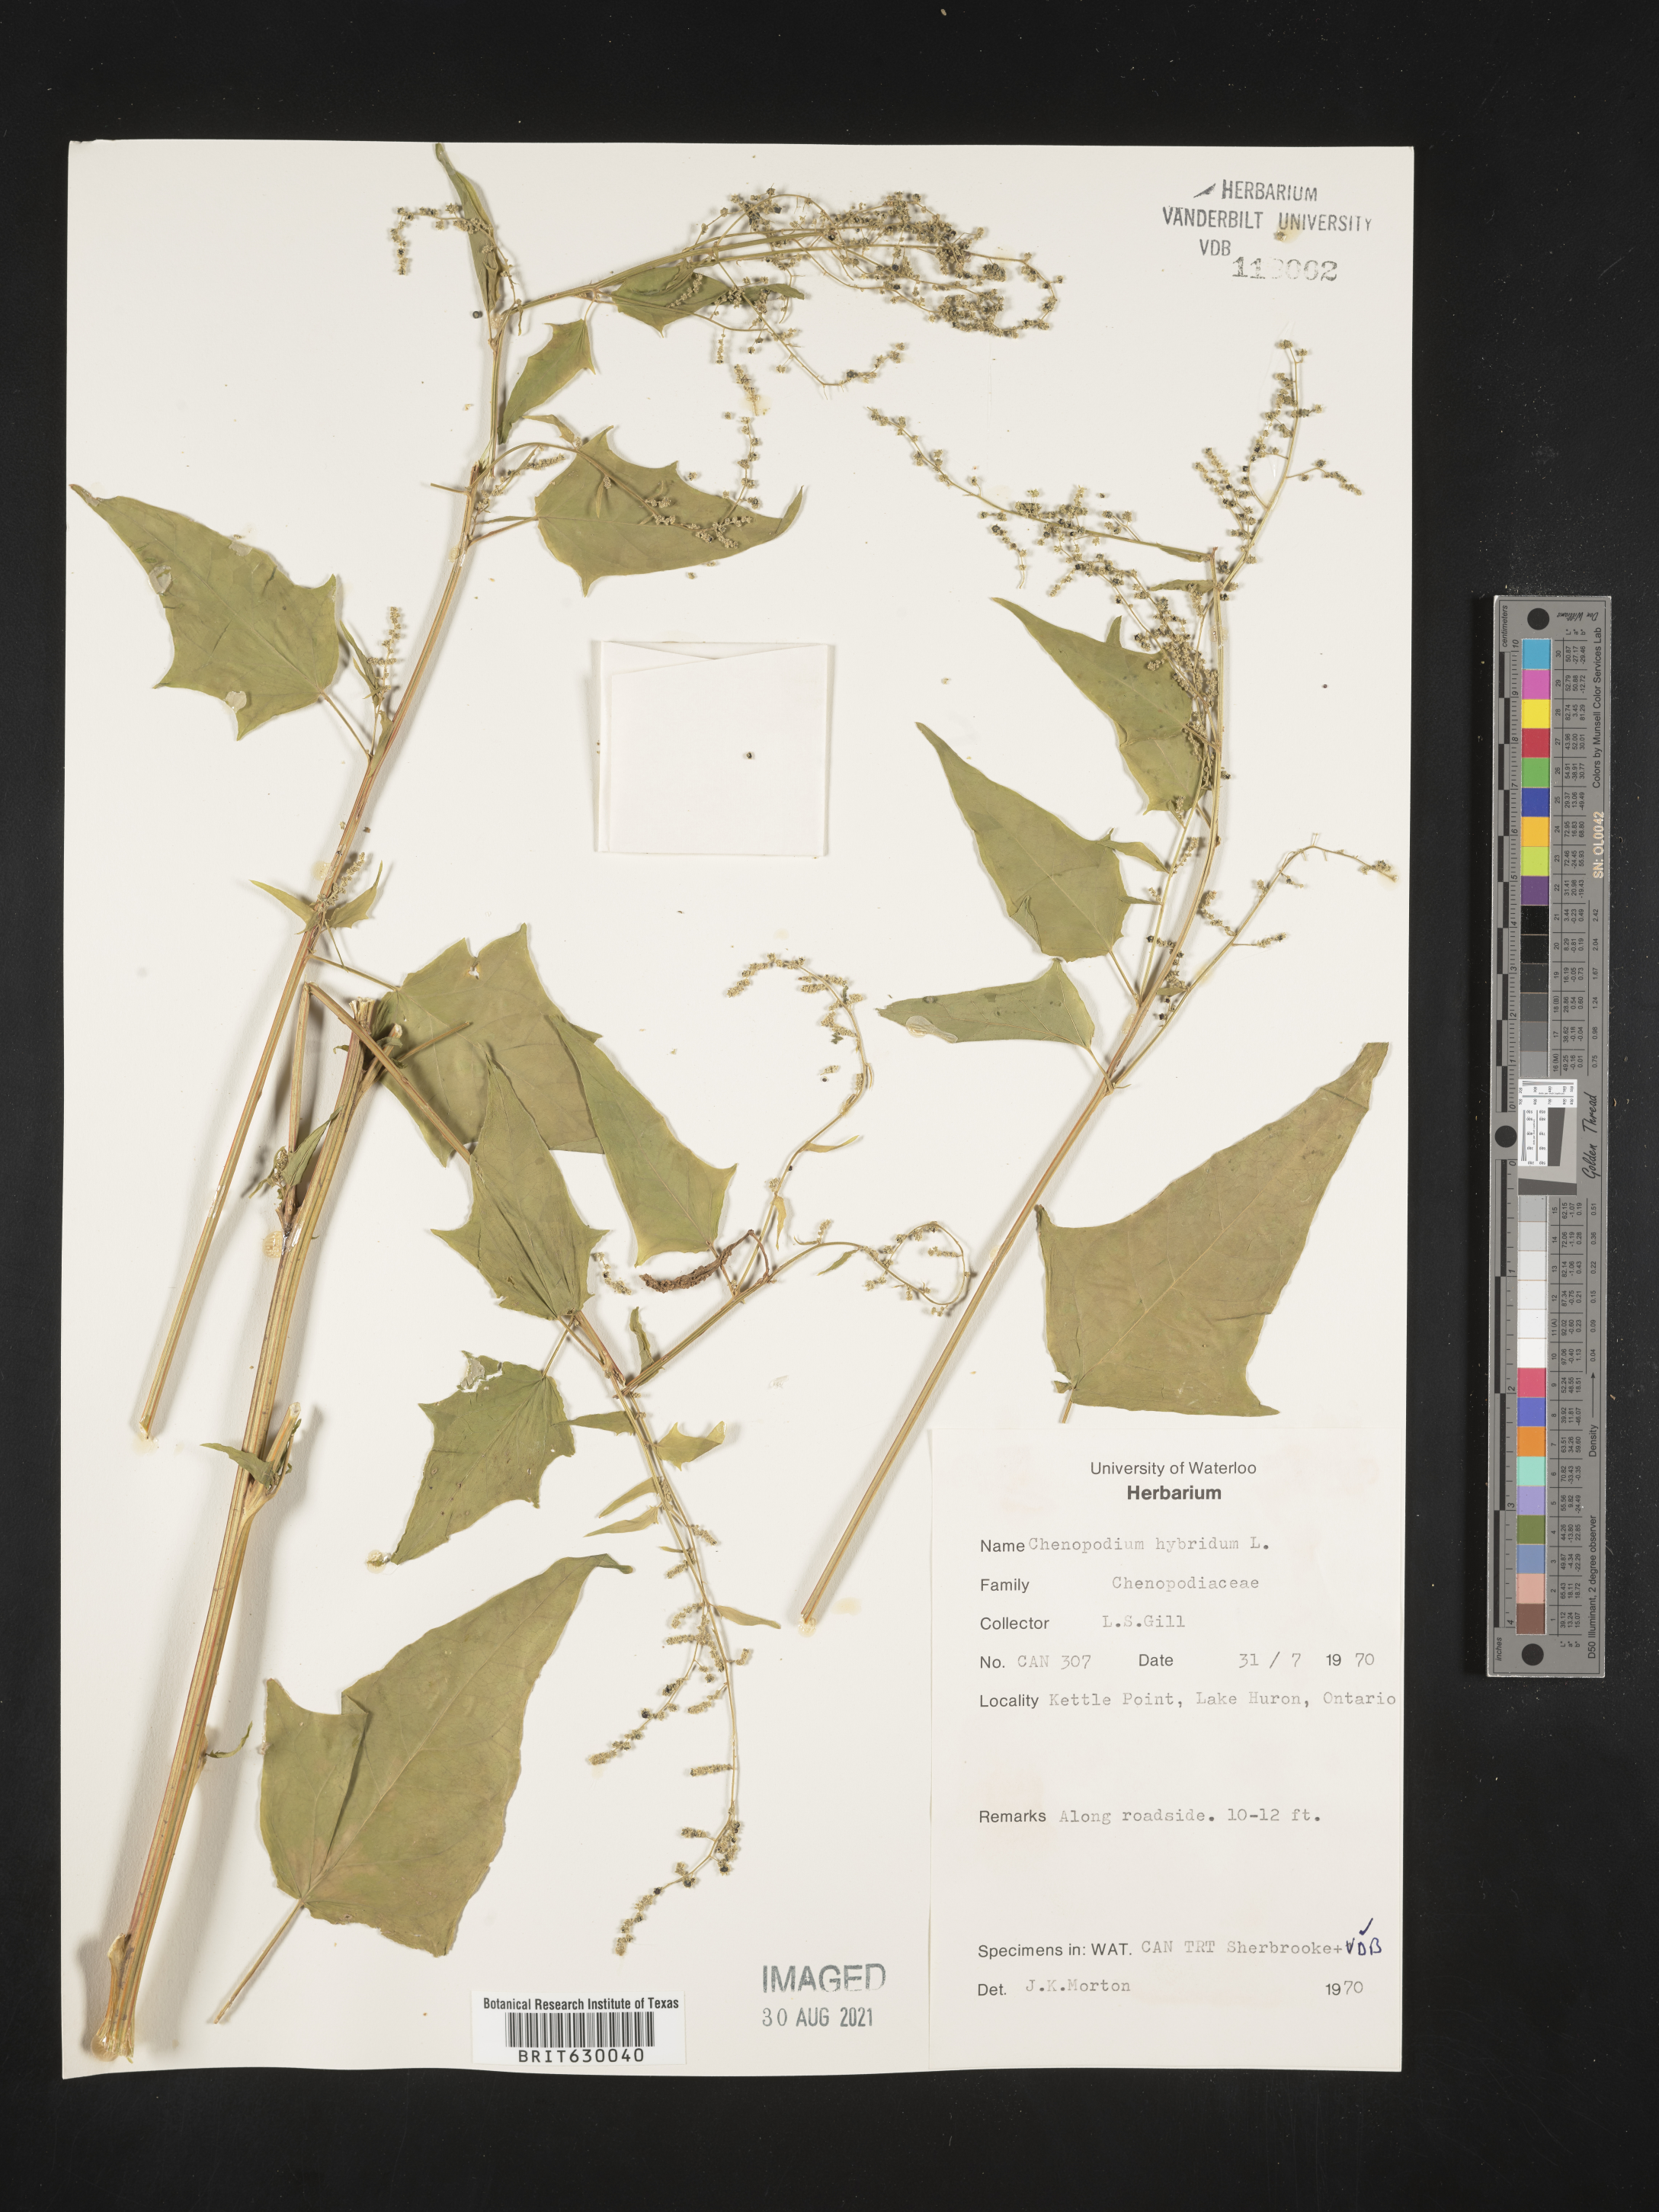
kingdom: Plantae
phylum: Tracheophyta
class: Magnoliopsida
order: Caryophyllales
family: Amaranthaceae
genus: Chenopodiastrum
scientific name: Chenopodiastrum hybridum
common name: Mapleleaf goosefoot
